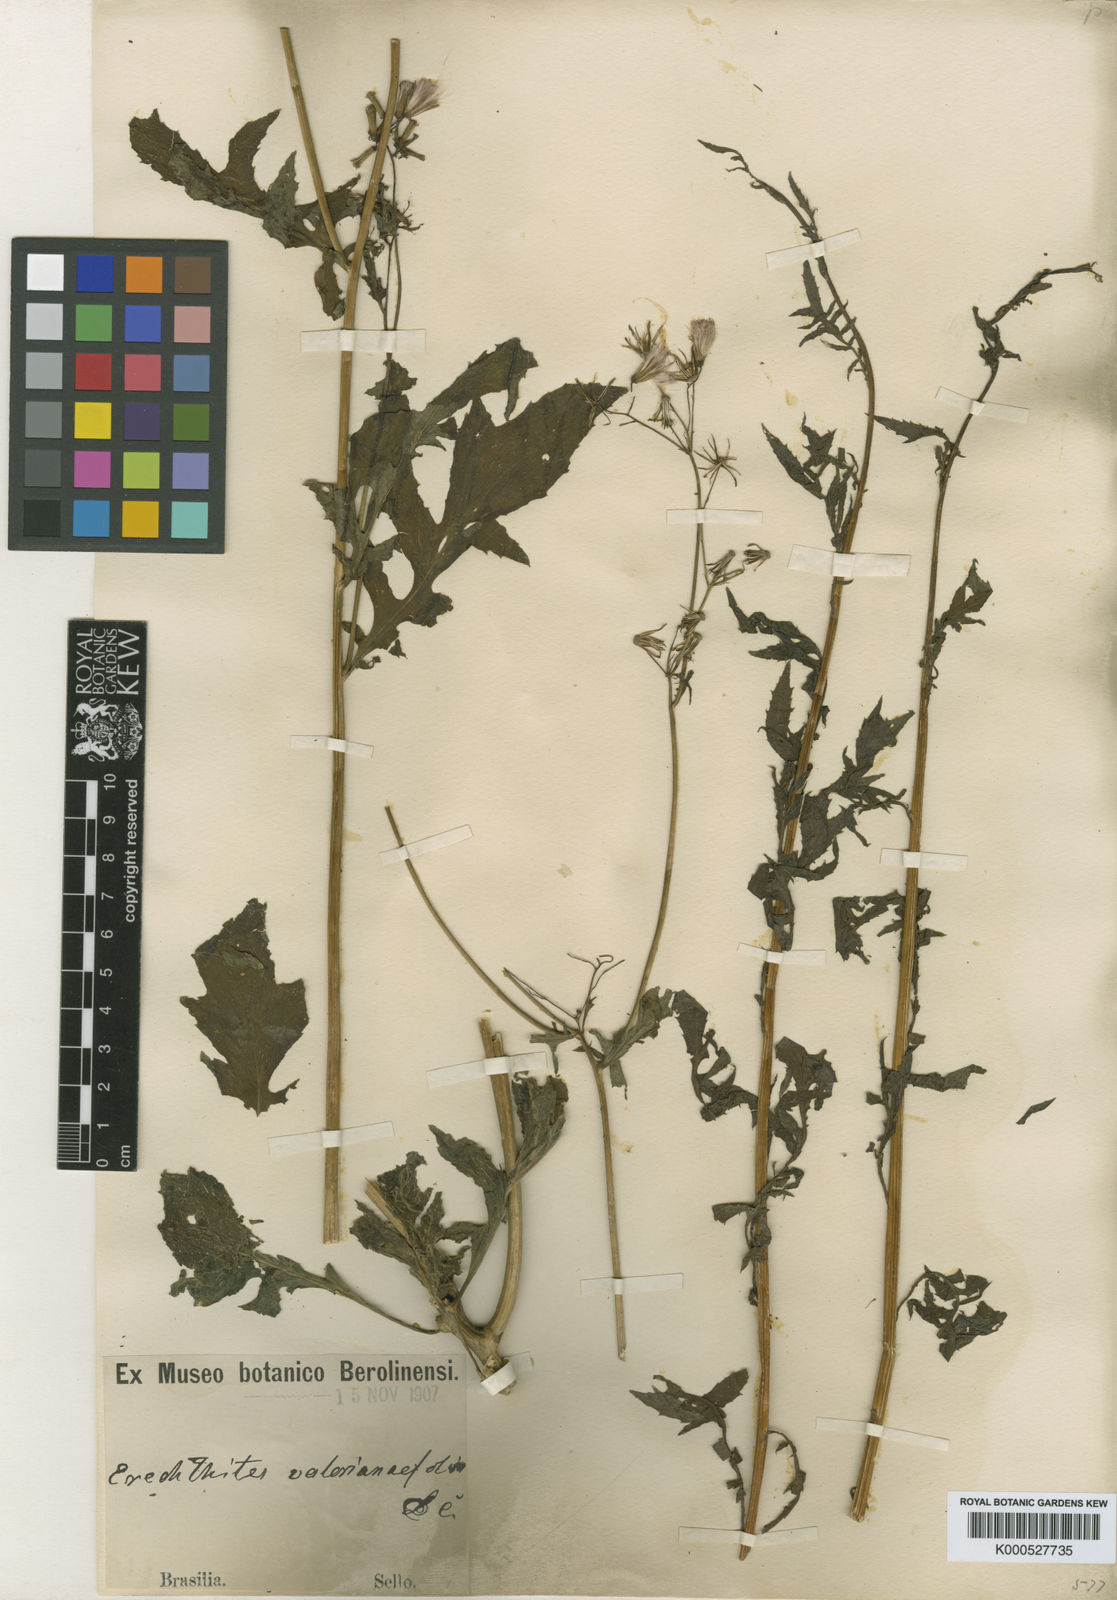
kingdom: Plantae
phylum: Tracheophyta
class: Magnoliopsida
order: Asterales
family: Asteraceae
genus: Erechtites
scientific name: Erechtites valerianifolius
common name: Tropical burnweed
